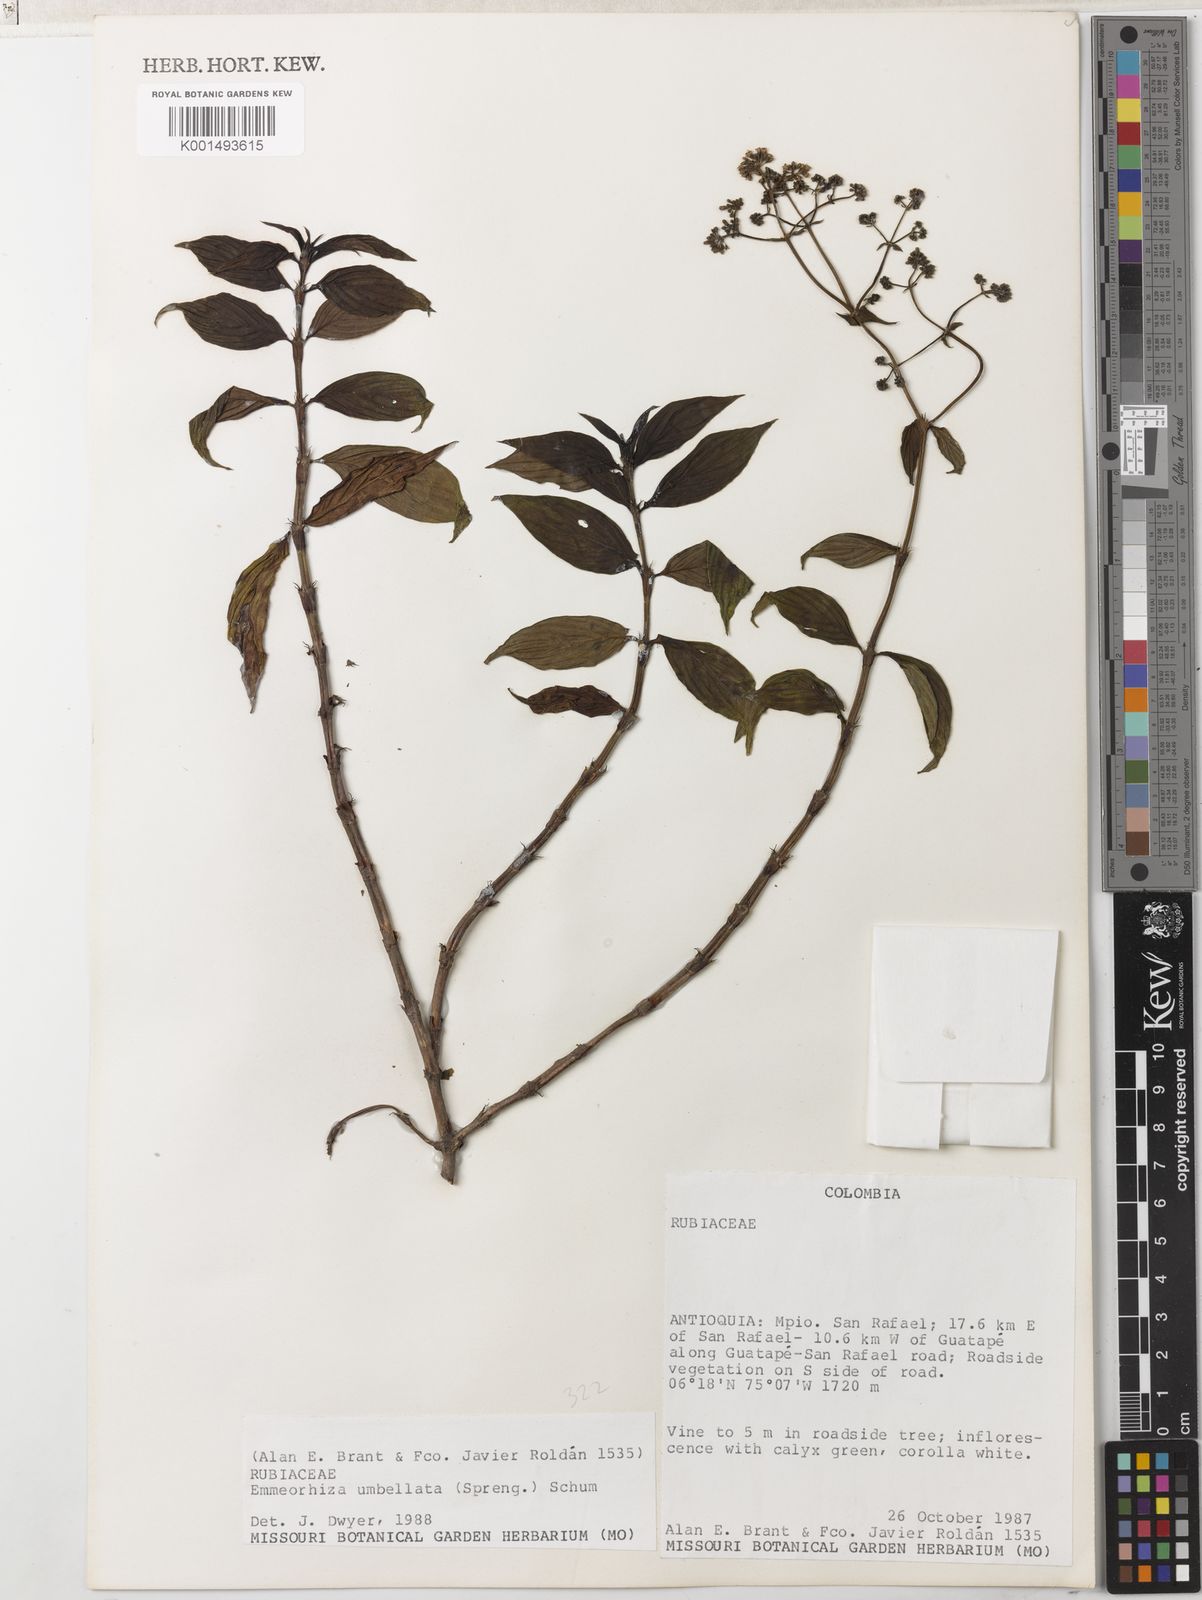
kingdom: Plantae
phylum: Tracheophyta
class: Magnoliopsida
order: Gentianales
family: Rubiaceae
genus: Emmeorhiza
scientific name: Emmeorhiza umbellata
